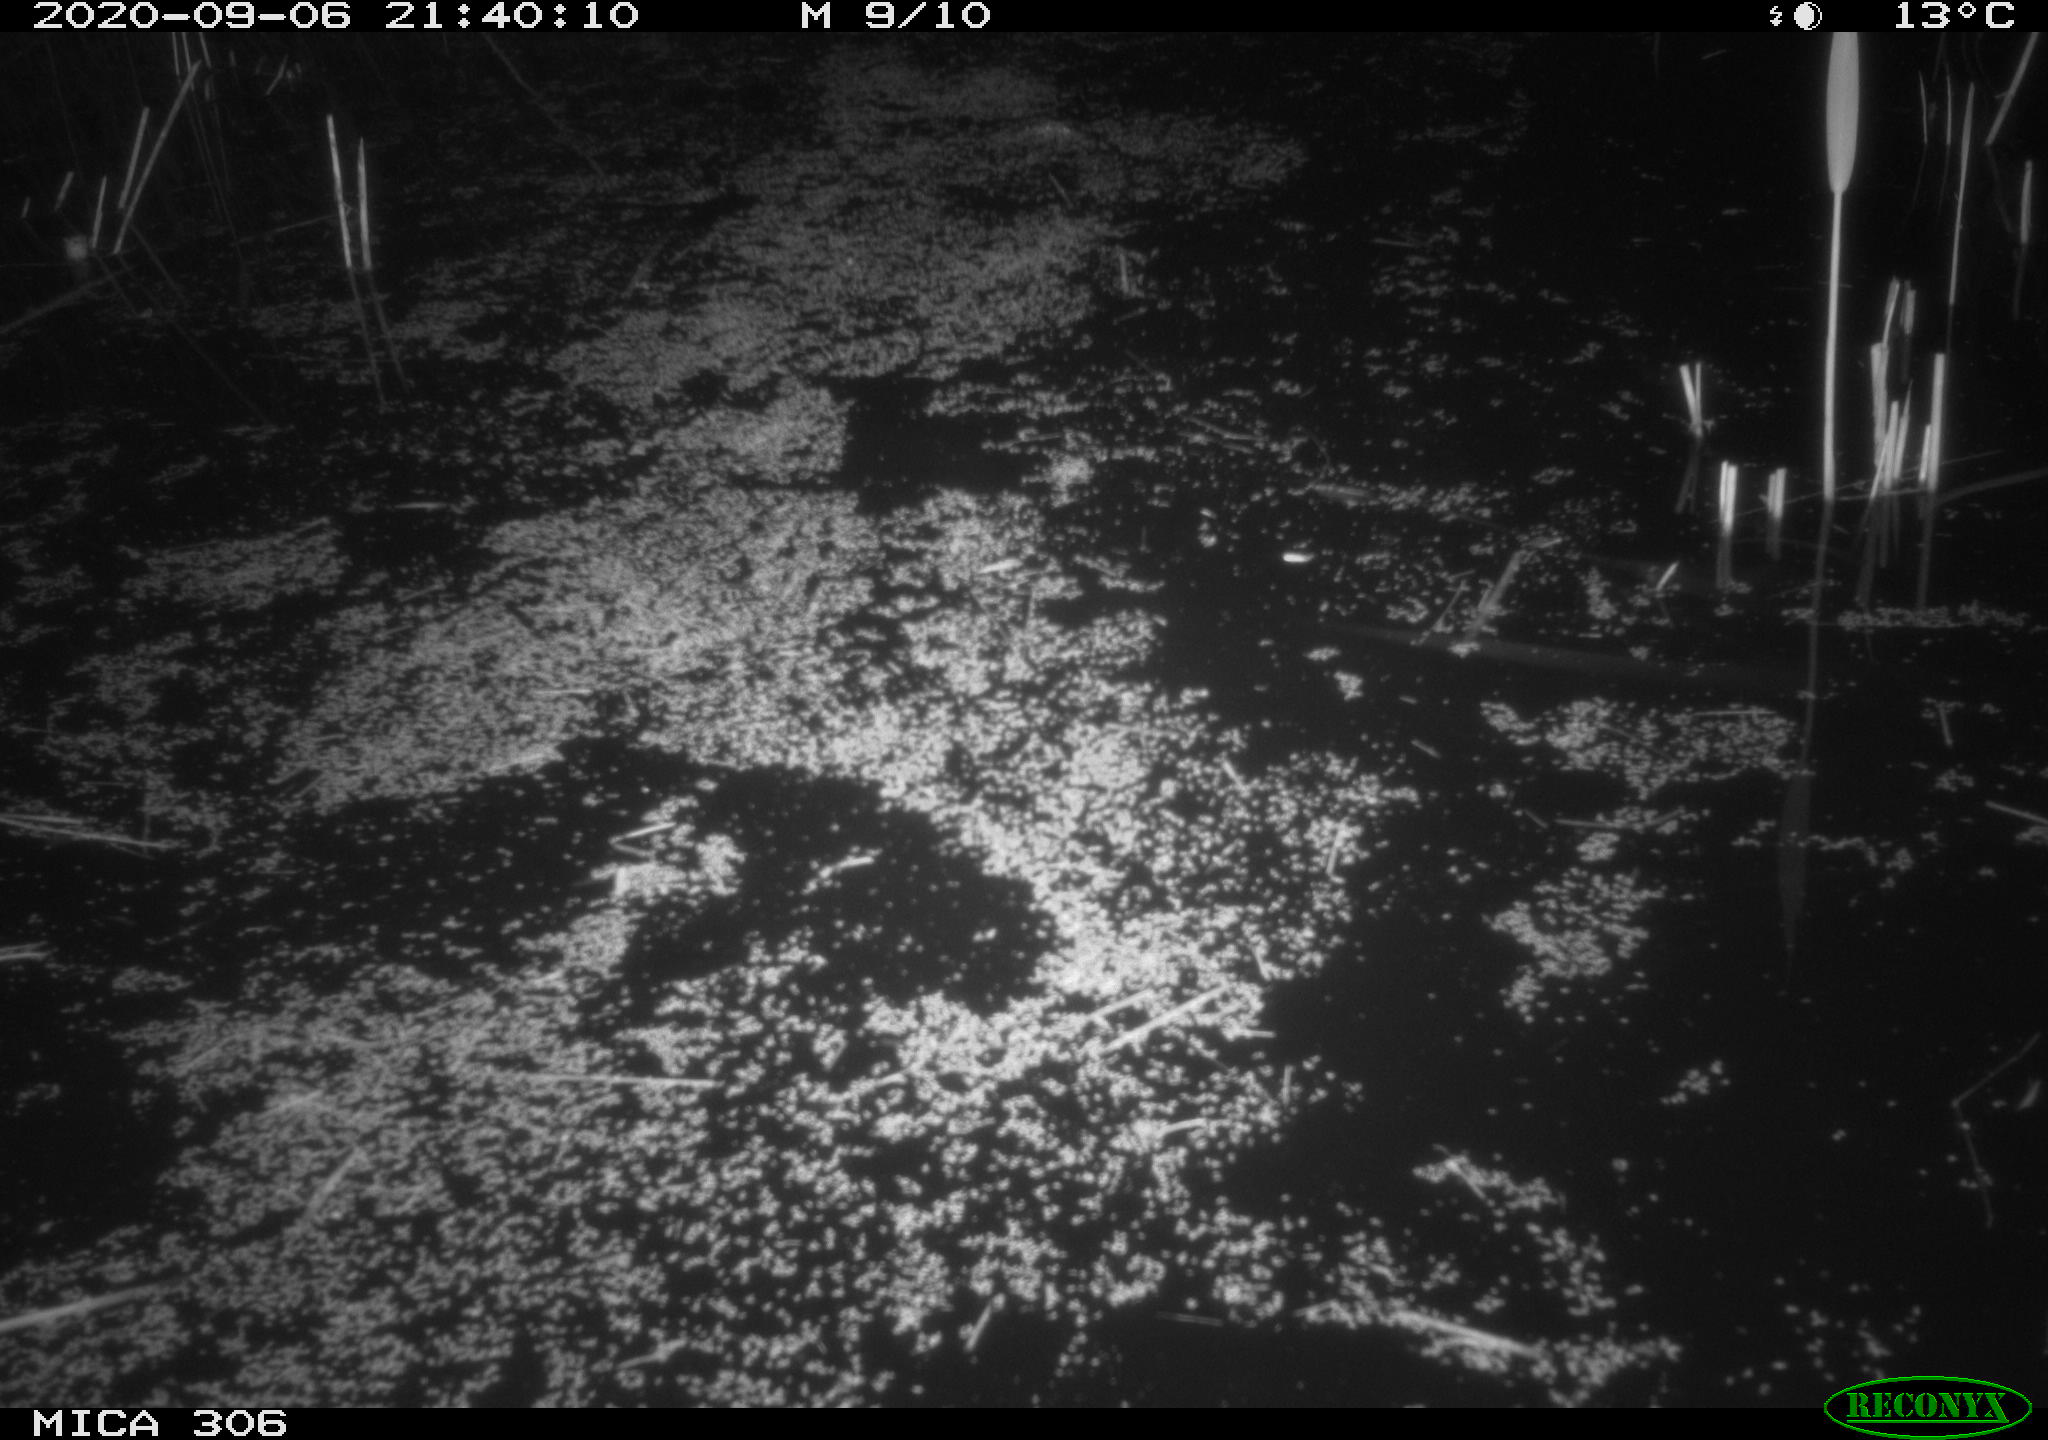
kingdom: Animalia
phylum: Chordata
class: Mammalia
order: Rodentia
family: Muridae
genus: Rattus
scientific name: Rattus norvegicus
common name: Brown rat
